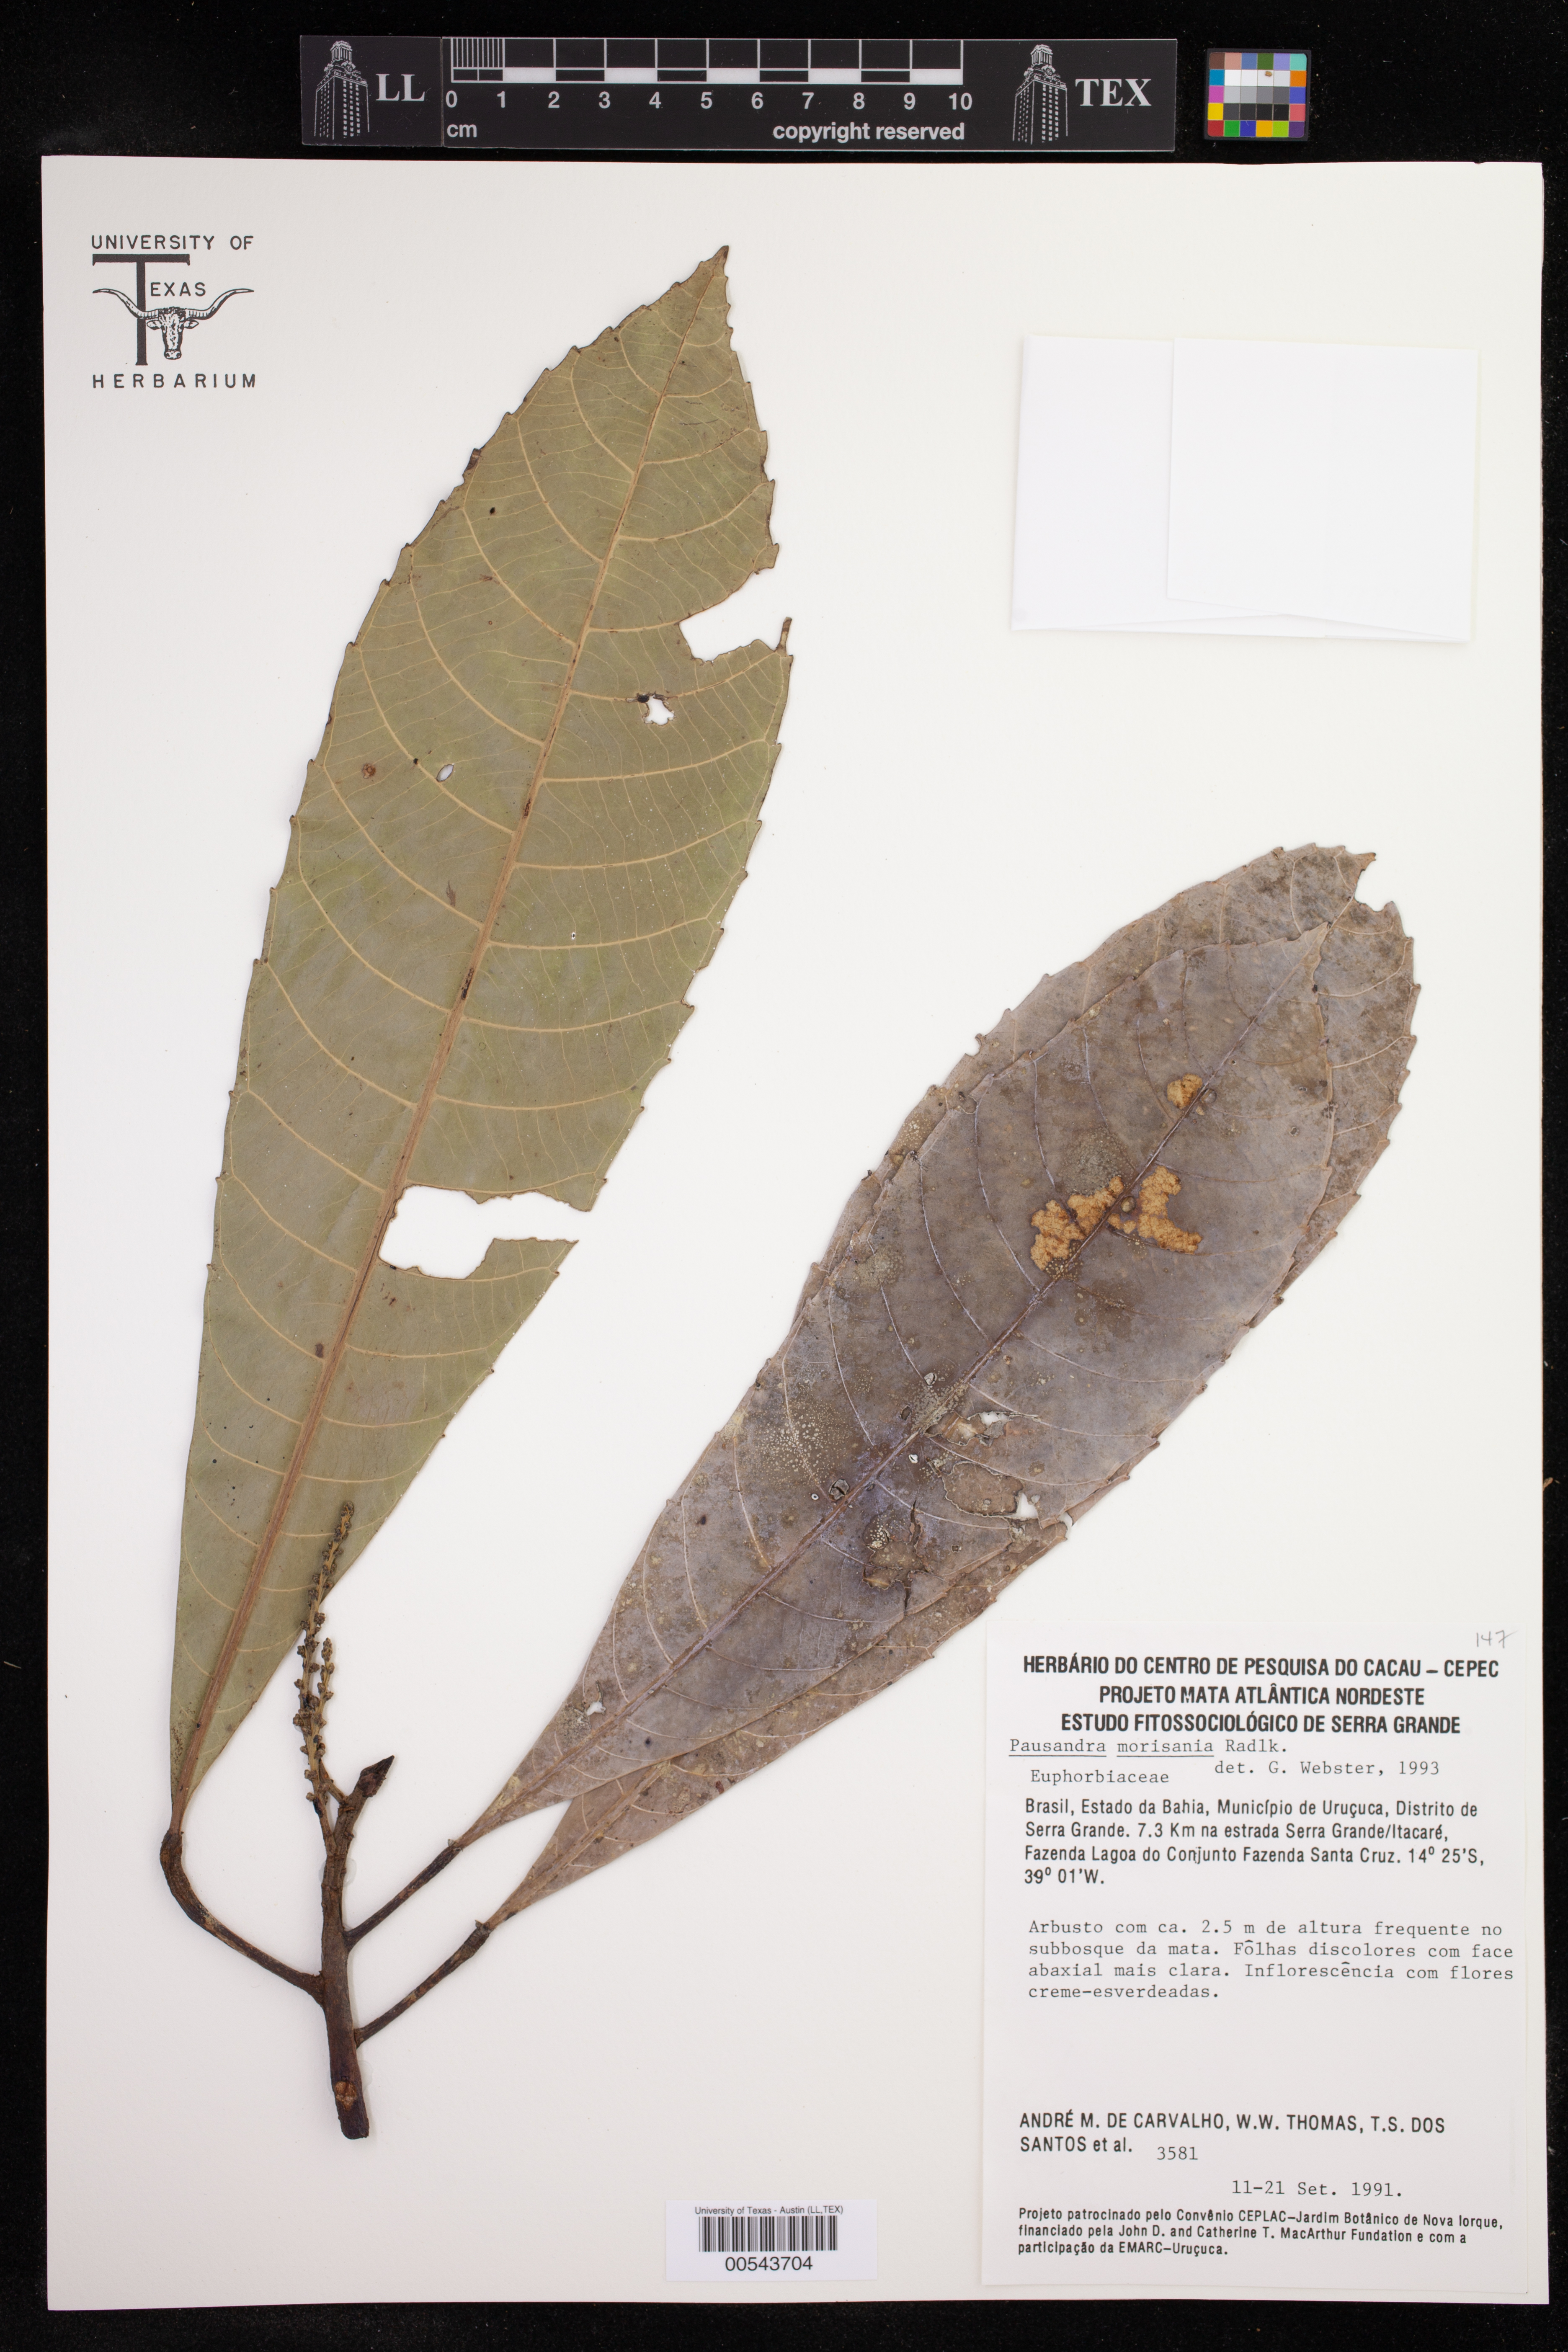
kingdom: Plantae
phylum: Tracheophyta
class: Magnoliopsida
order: Malpighiales
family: Euphorbiaceae
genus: Pausandra
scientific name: Pausandra morisiana
